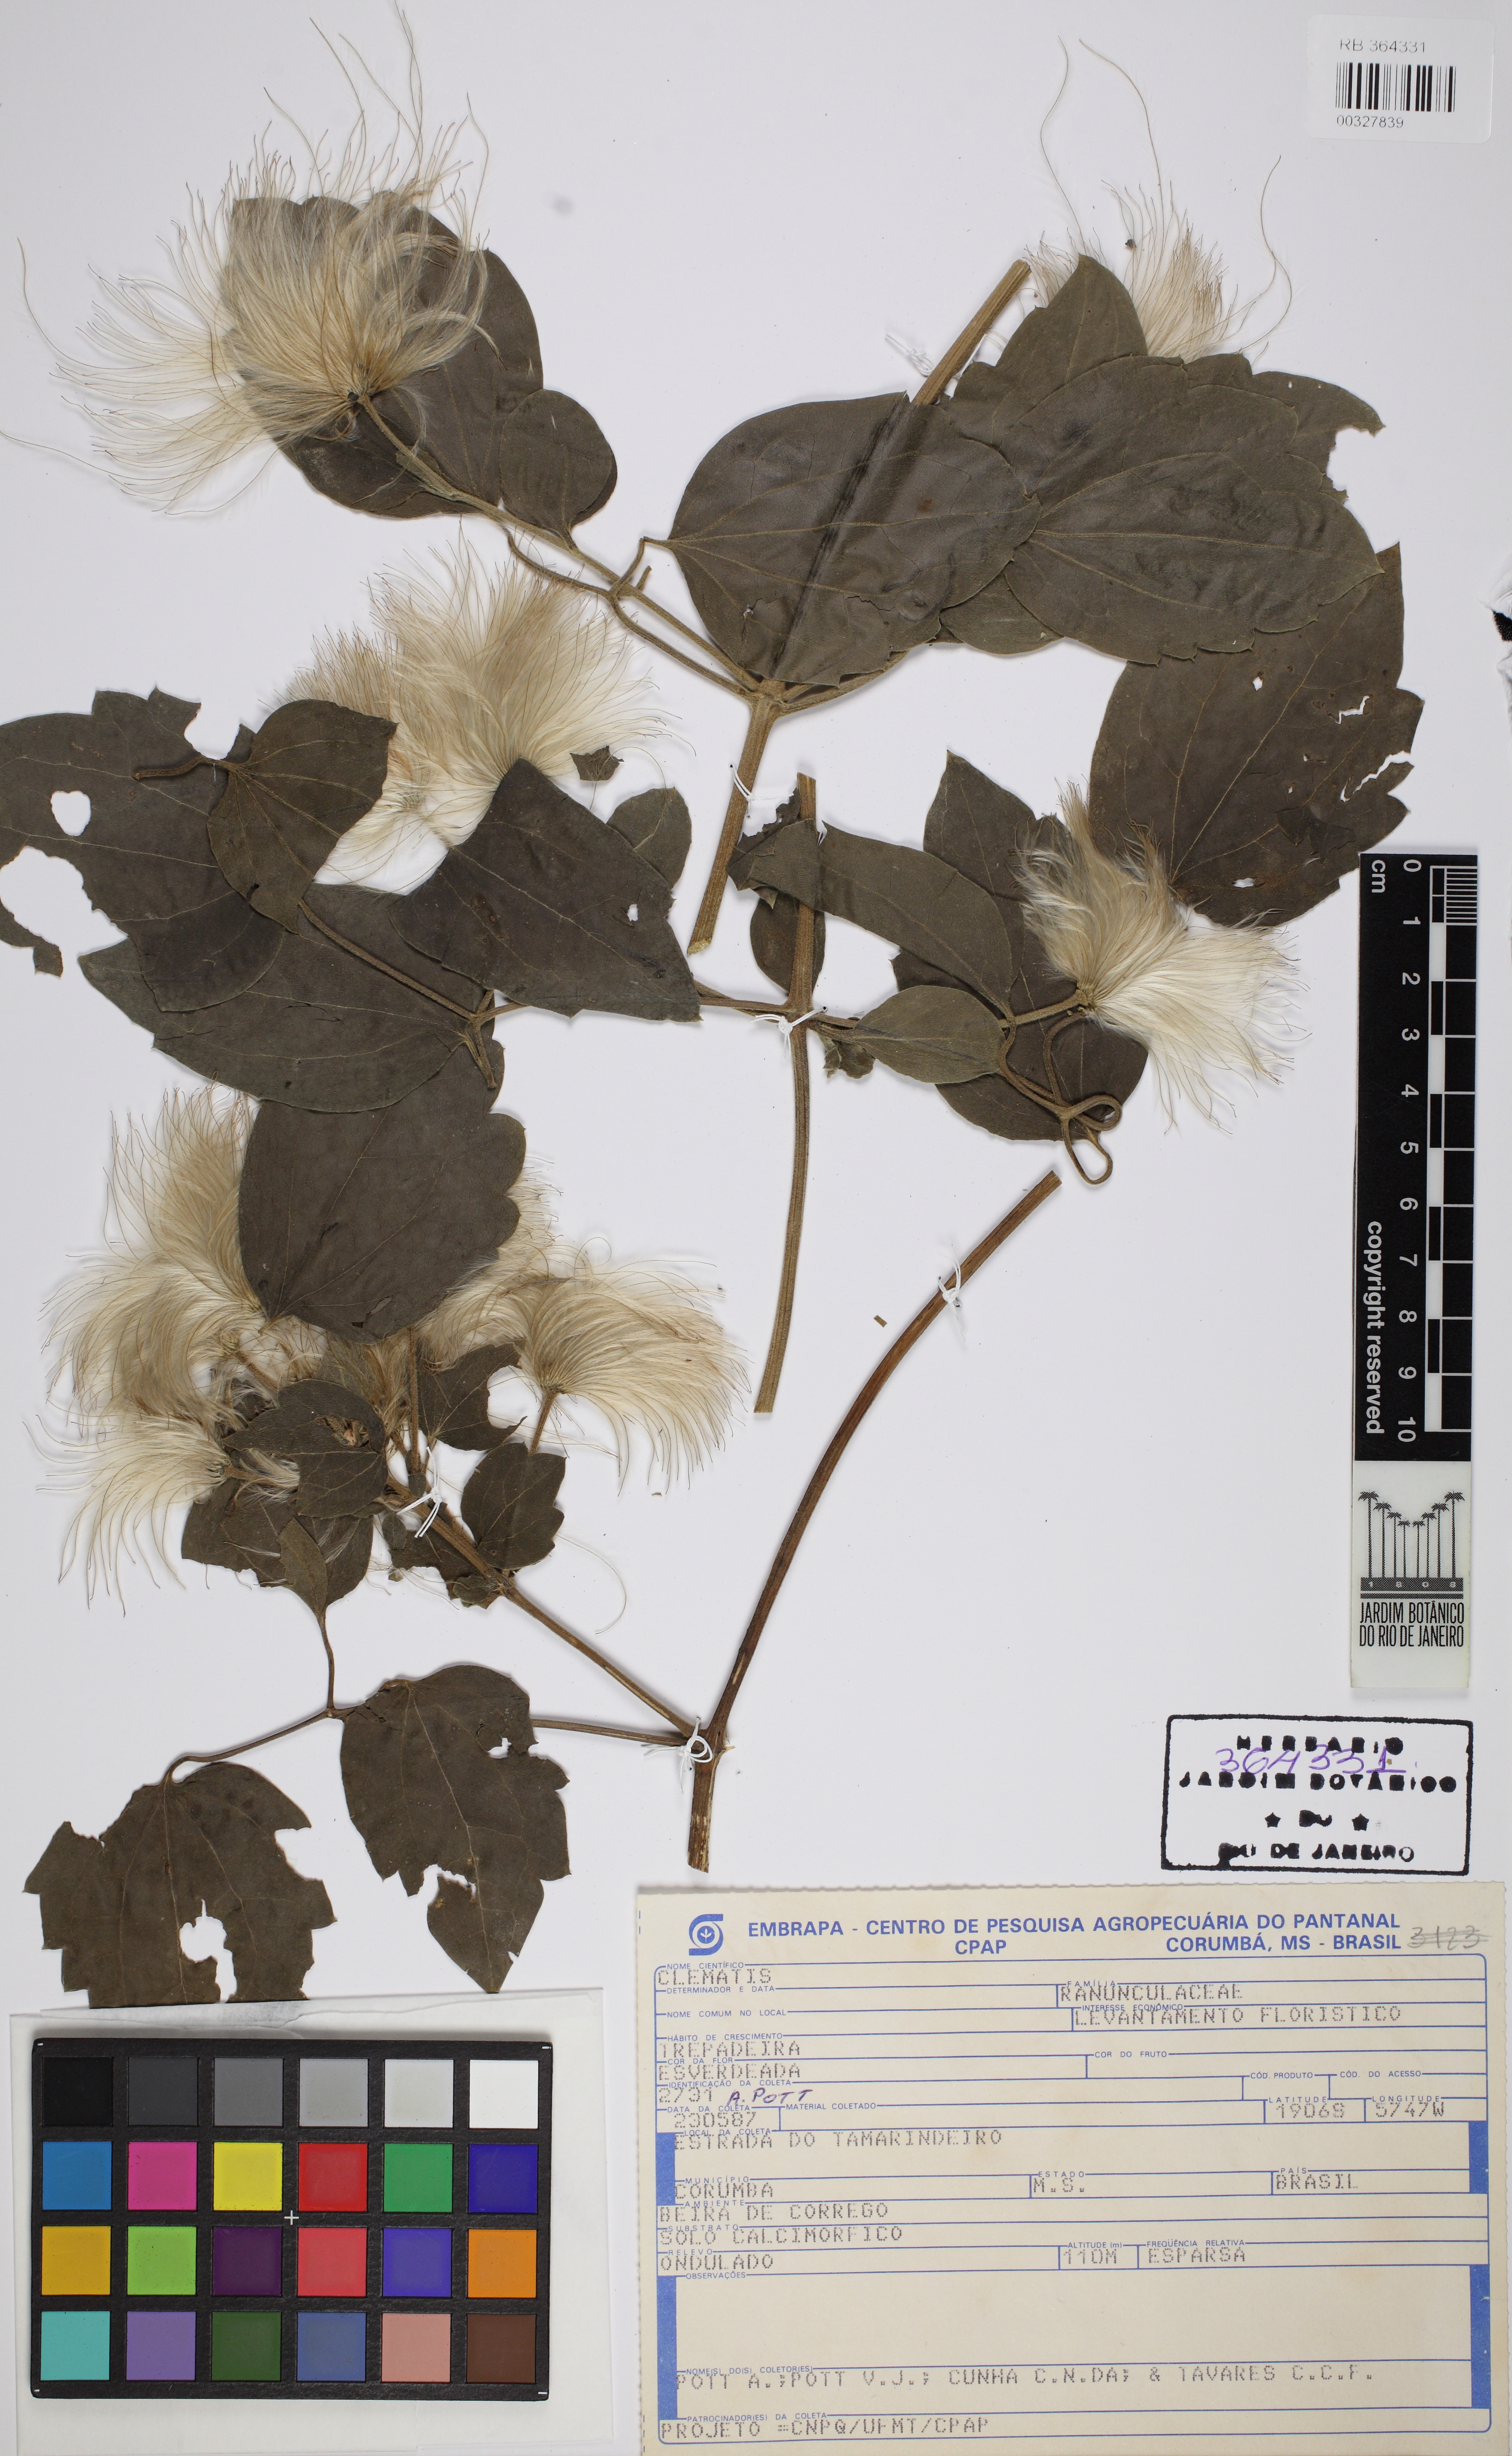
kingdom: Plantae
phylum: Tracheophyta
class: Magnoliopsida
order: Ranunculales
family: Ranunculaceae
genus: Clematis
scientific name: Clematis
